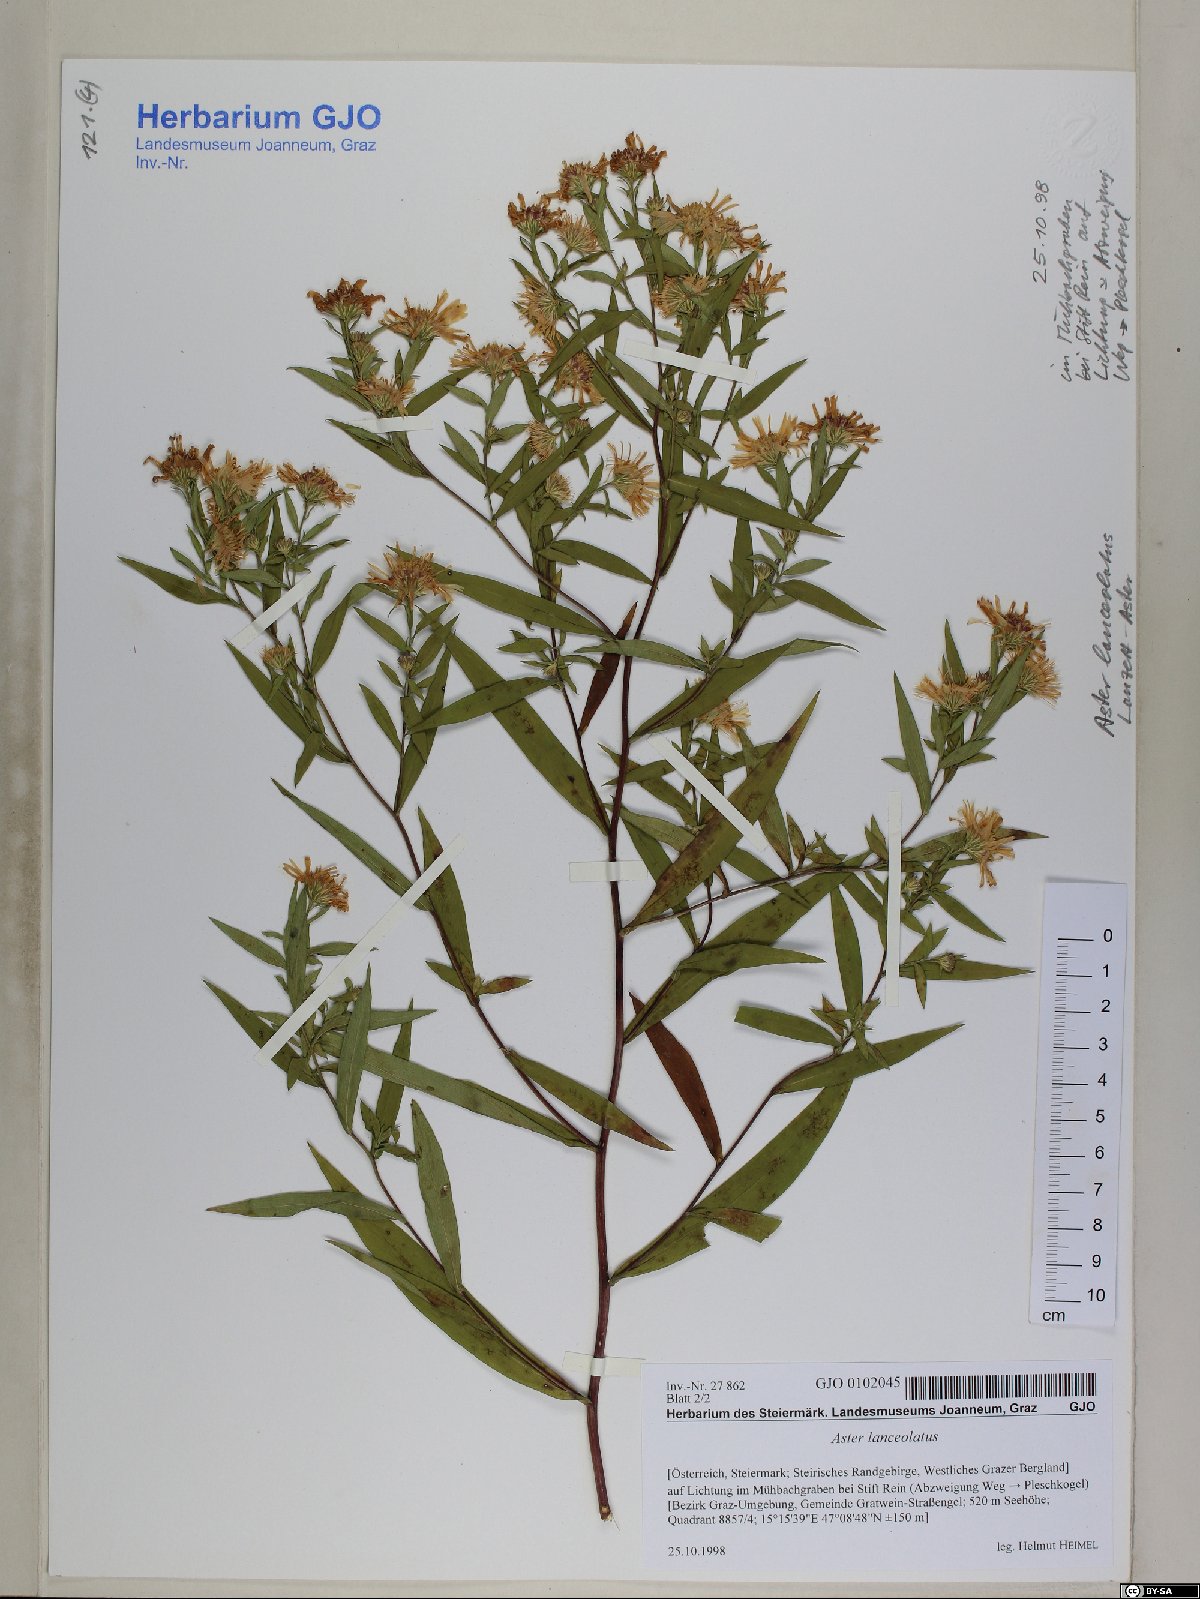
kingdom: Plantae
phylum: Tracheophyta
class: Magnoliopsida
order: Asterales
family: Asteraceae
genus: Symphyotrichum
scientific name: Symphyotrichum lanceolatum
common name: Panicled aster
